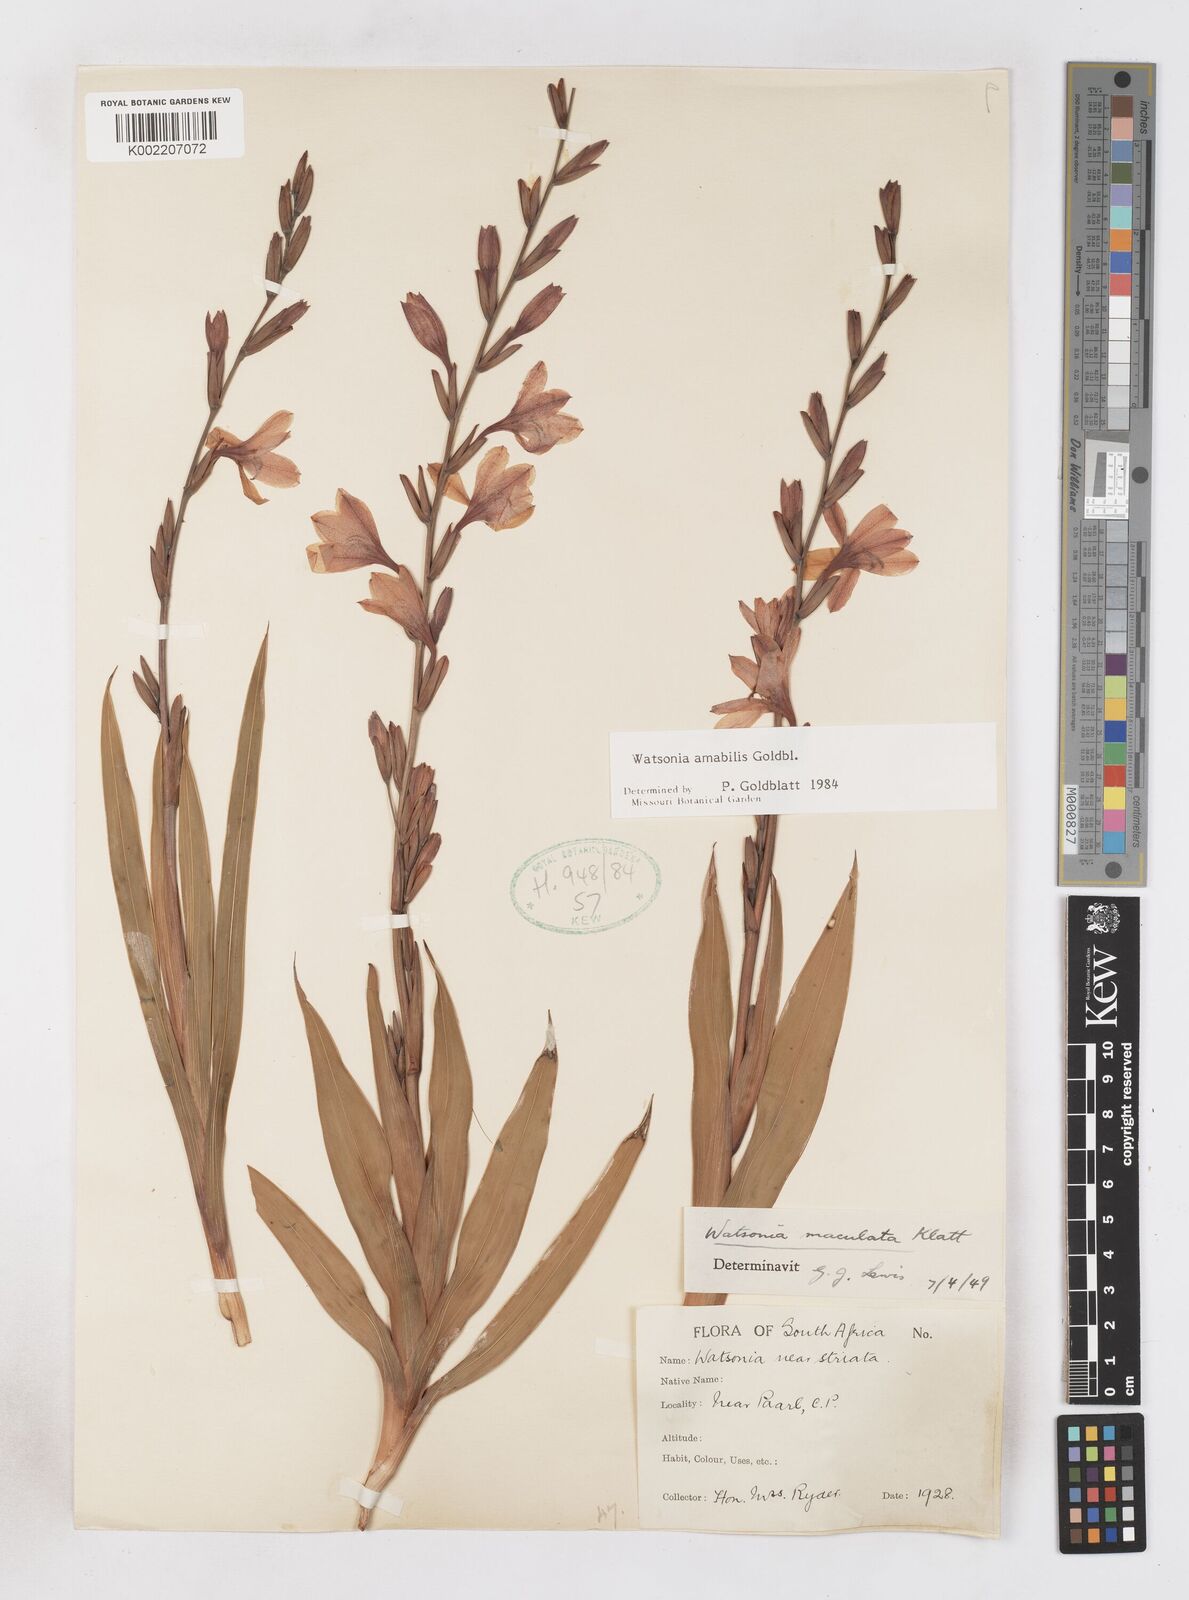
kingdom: Plantae
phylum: Tracheophyta
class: Liliopsida
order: Asparagales
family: Iridaceae
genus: Watsonia
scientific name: Watsonia amabilis
